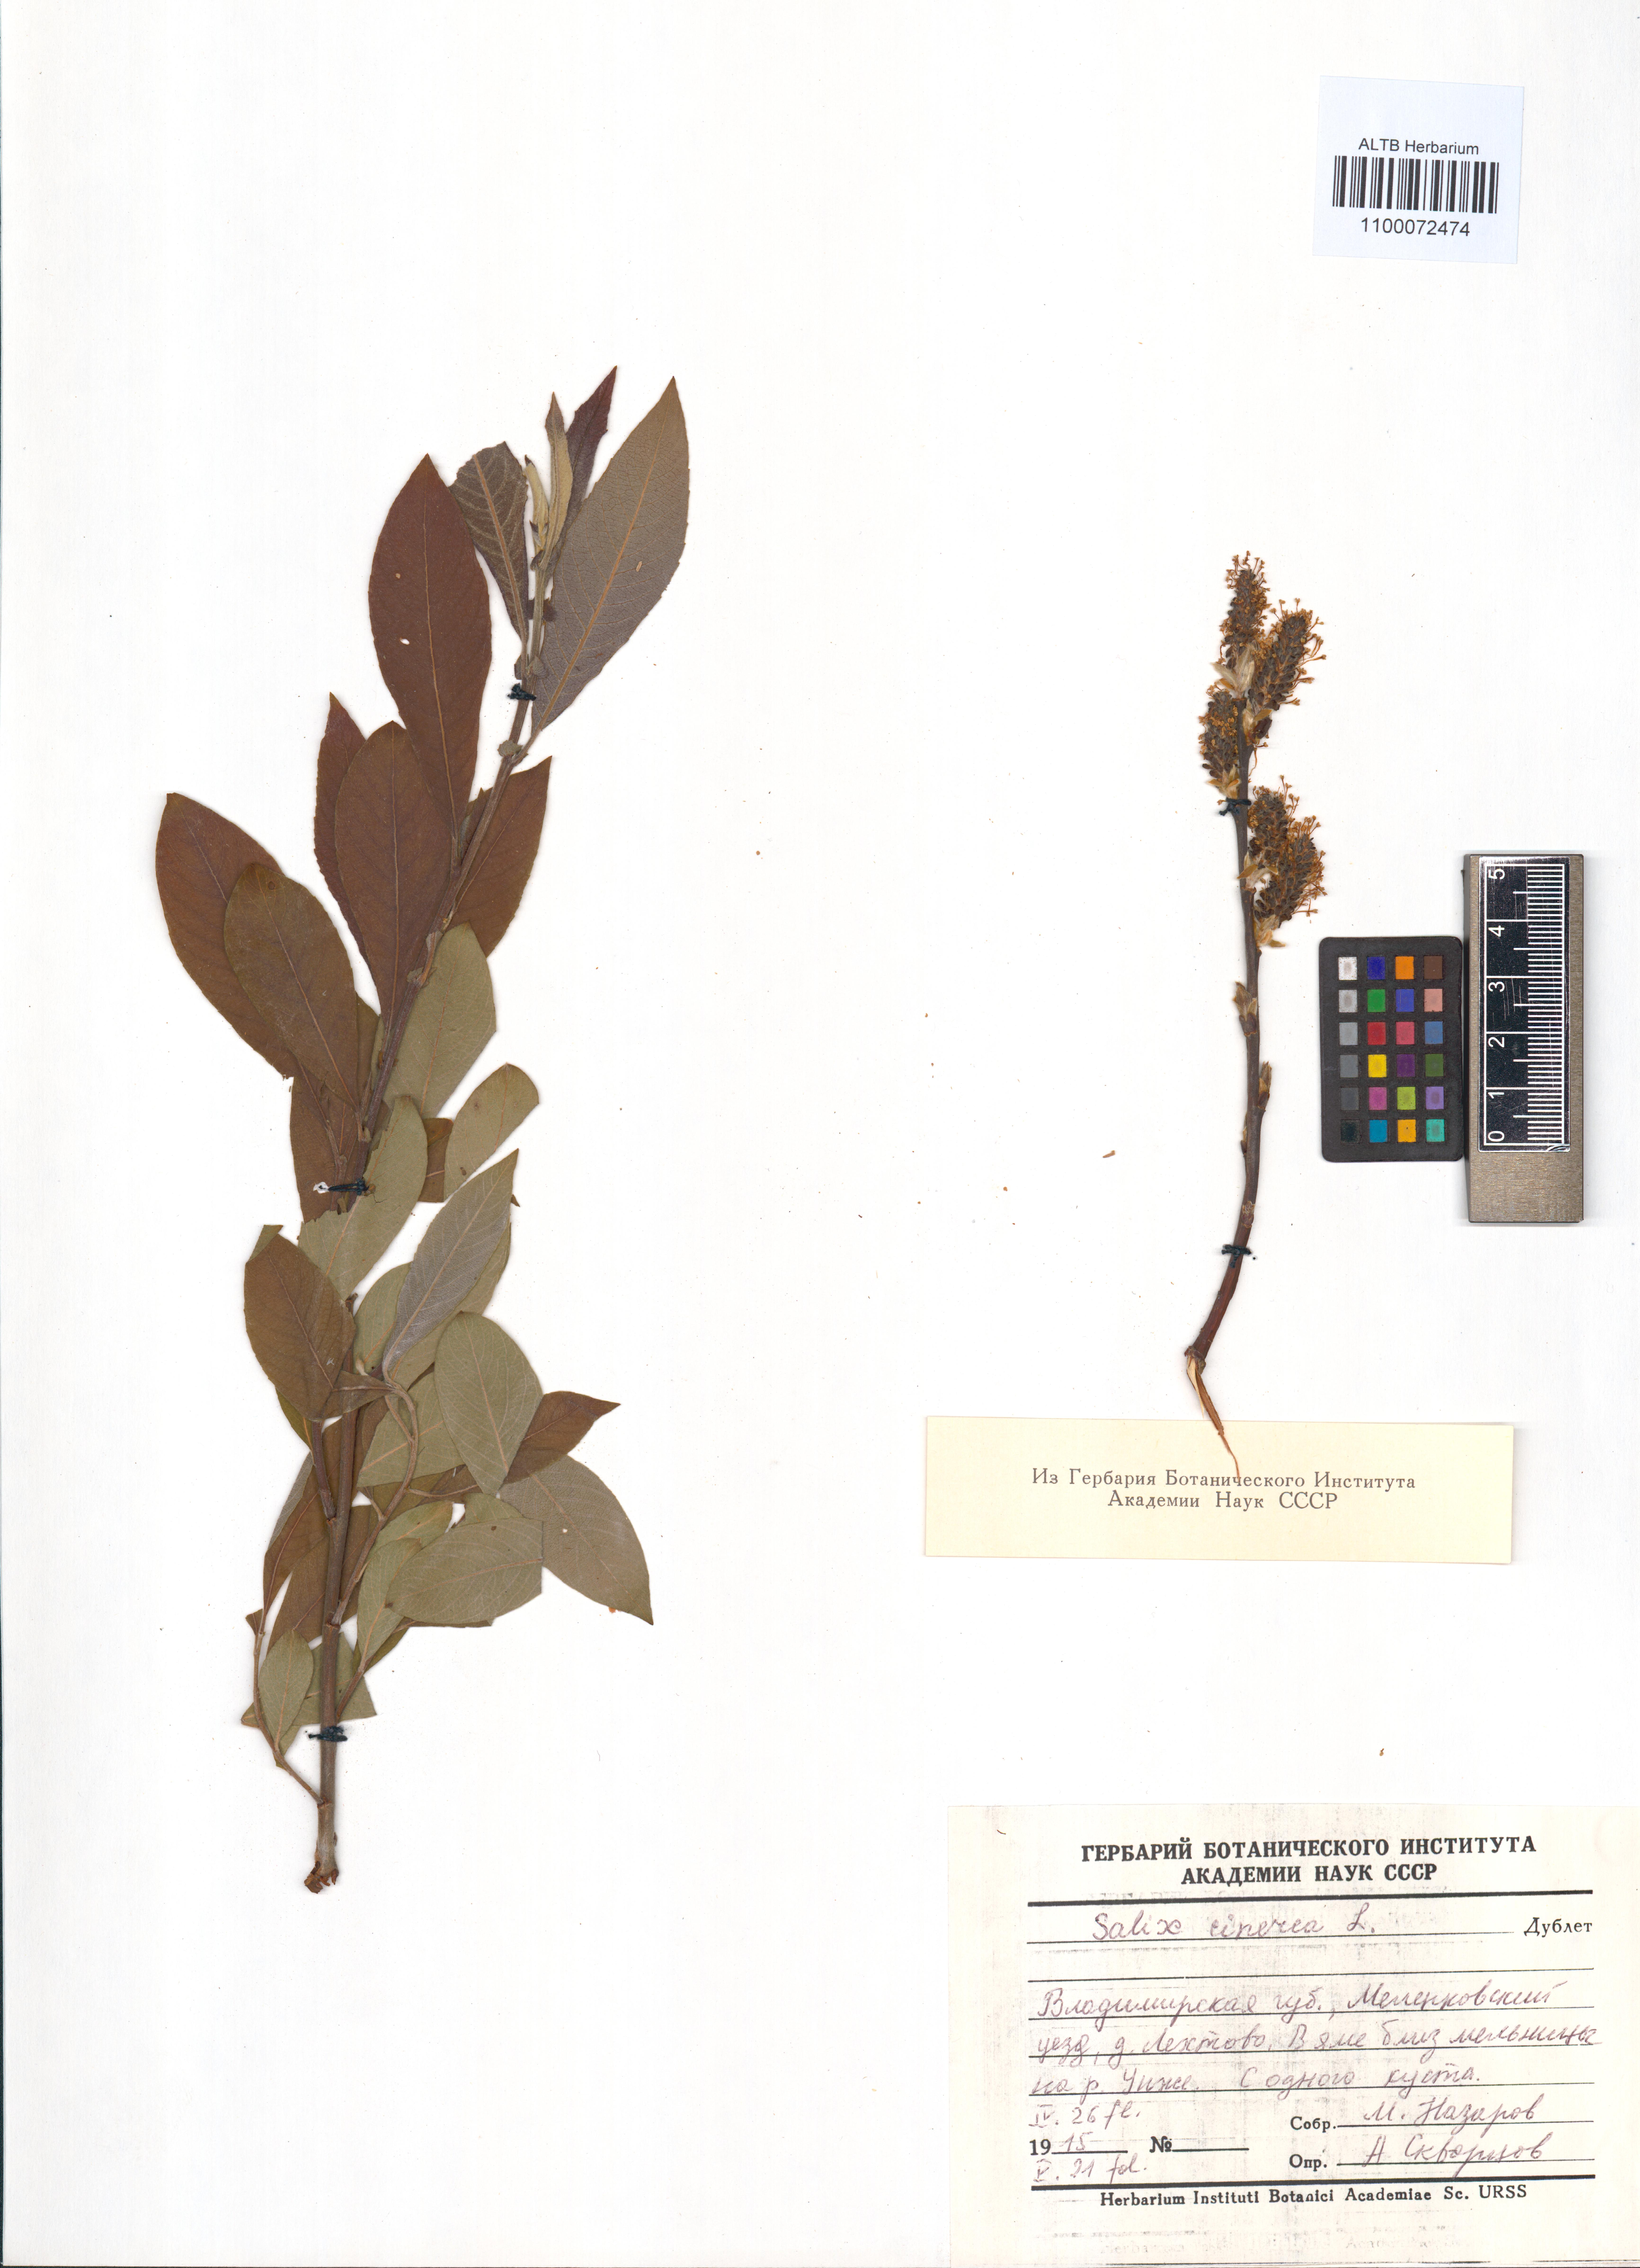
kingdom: Plantae
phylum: Tracheophyta
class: Magnoliopsida
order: Malpighiales
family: Salicaceae
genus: Salix
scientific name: Salix cinerea
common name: Common sallow
